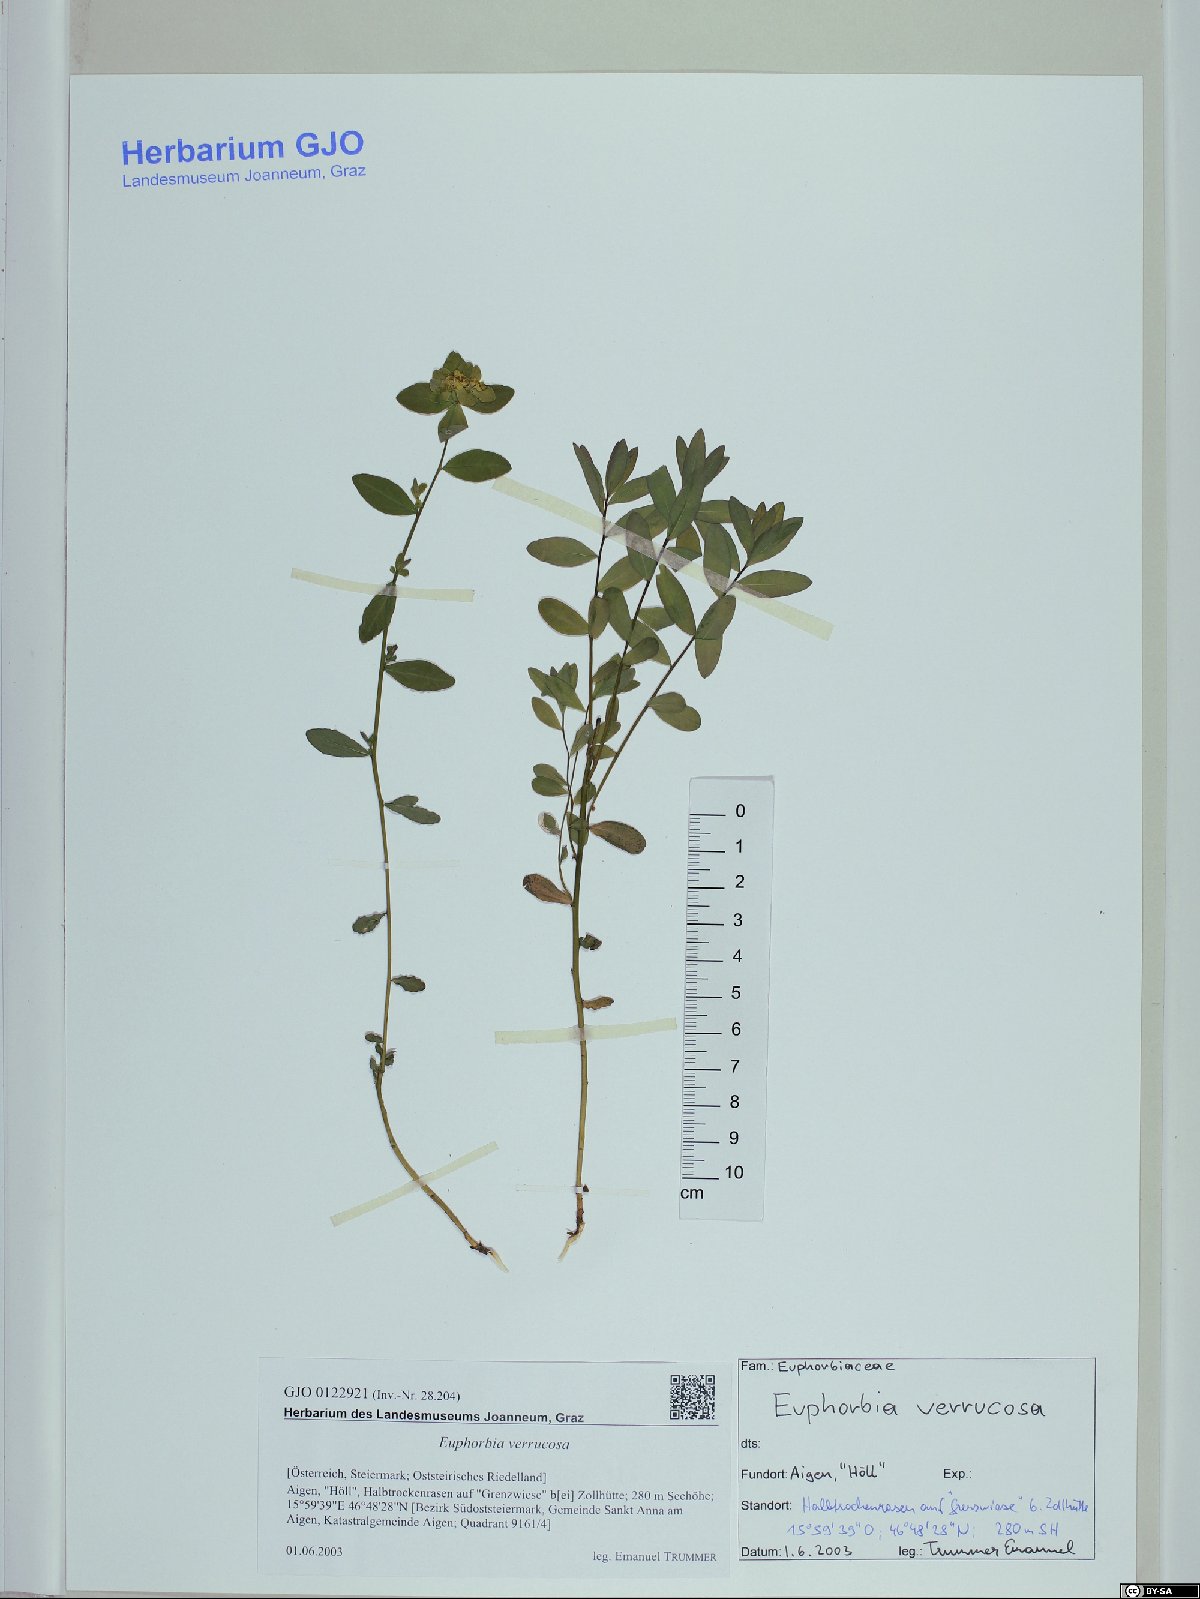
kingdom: Plantae
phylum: Tracheophyta
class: Magnoliopsida
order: Malpighiales
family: Euphorbiaceae
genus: Euphorbia
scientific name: Euphorbia verrucosa
